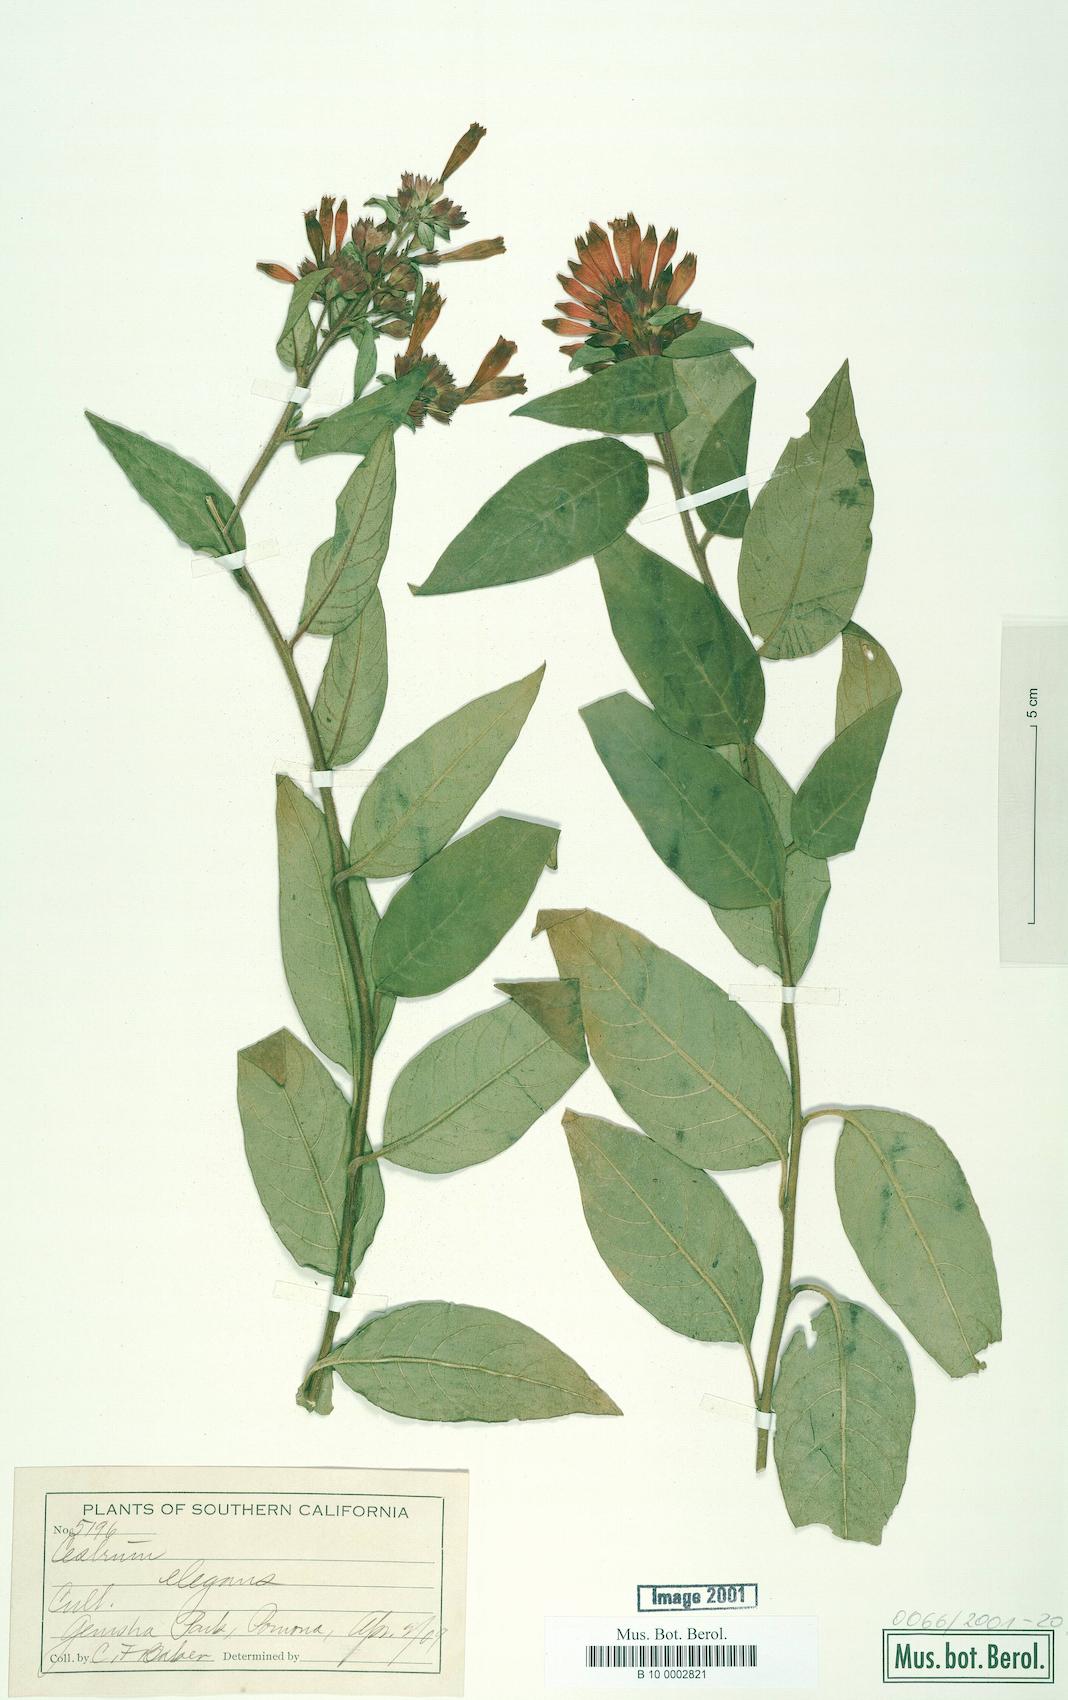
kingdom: Plantae
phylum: Tracheophyta
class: Magnoliopsida
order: Solanales
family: Solanaceae
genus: Cestrum
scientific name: Cestrum elegans
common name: Crimson cestrum
